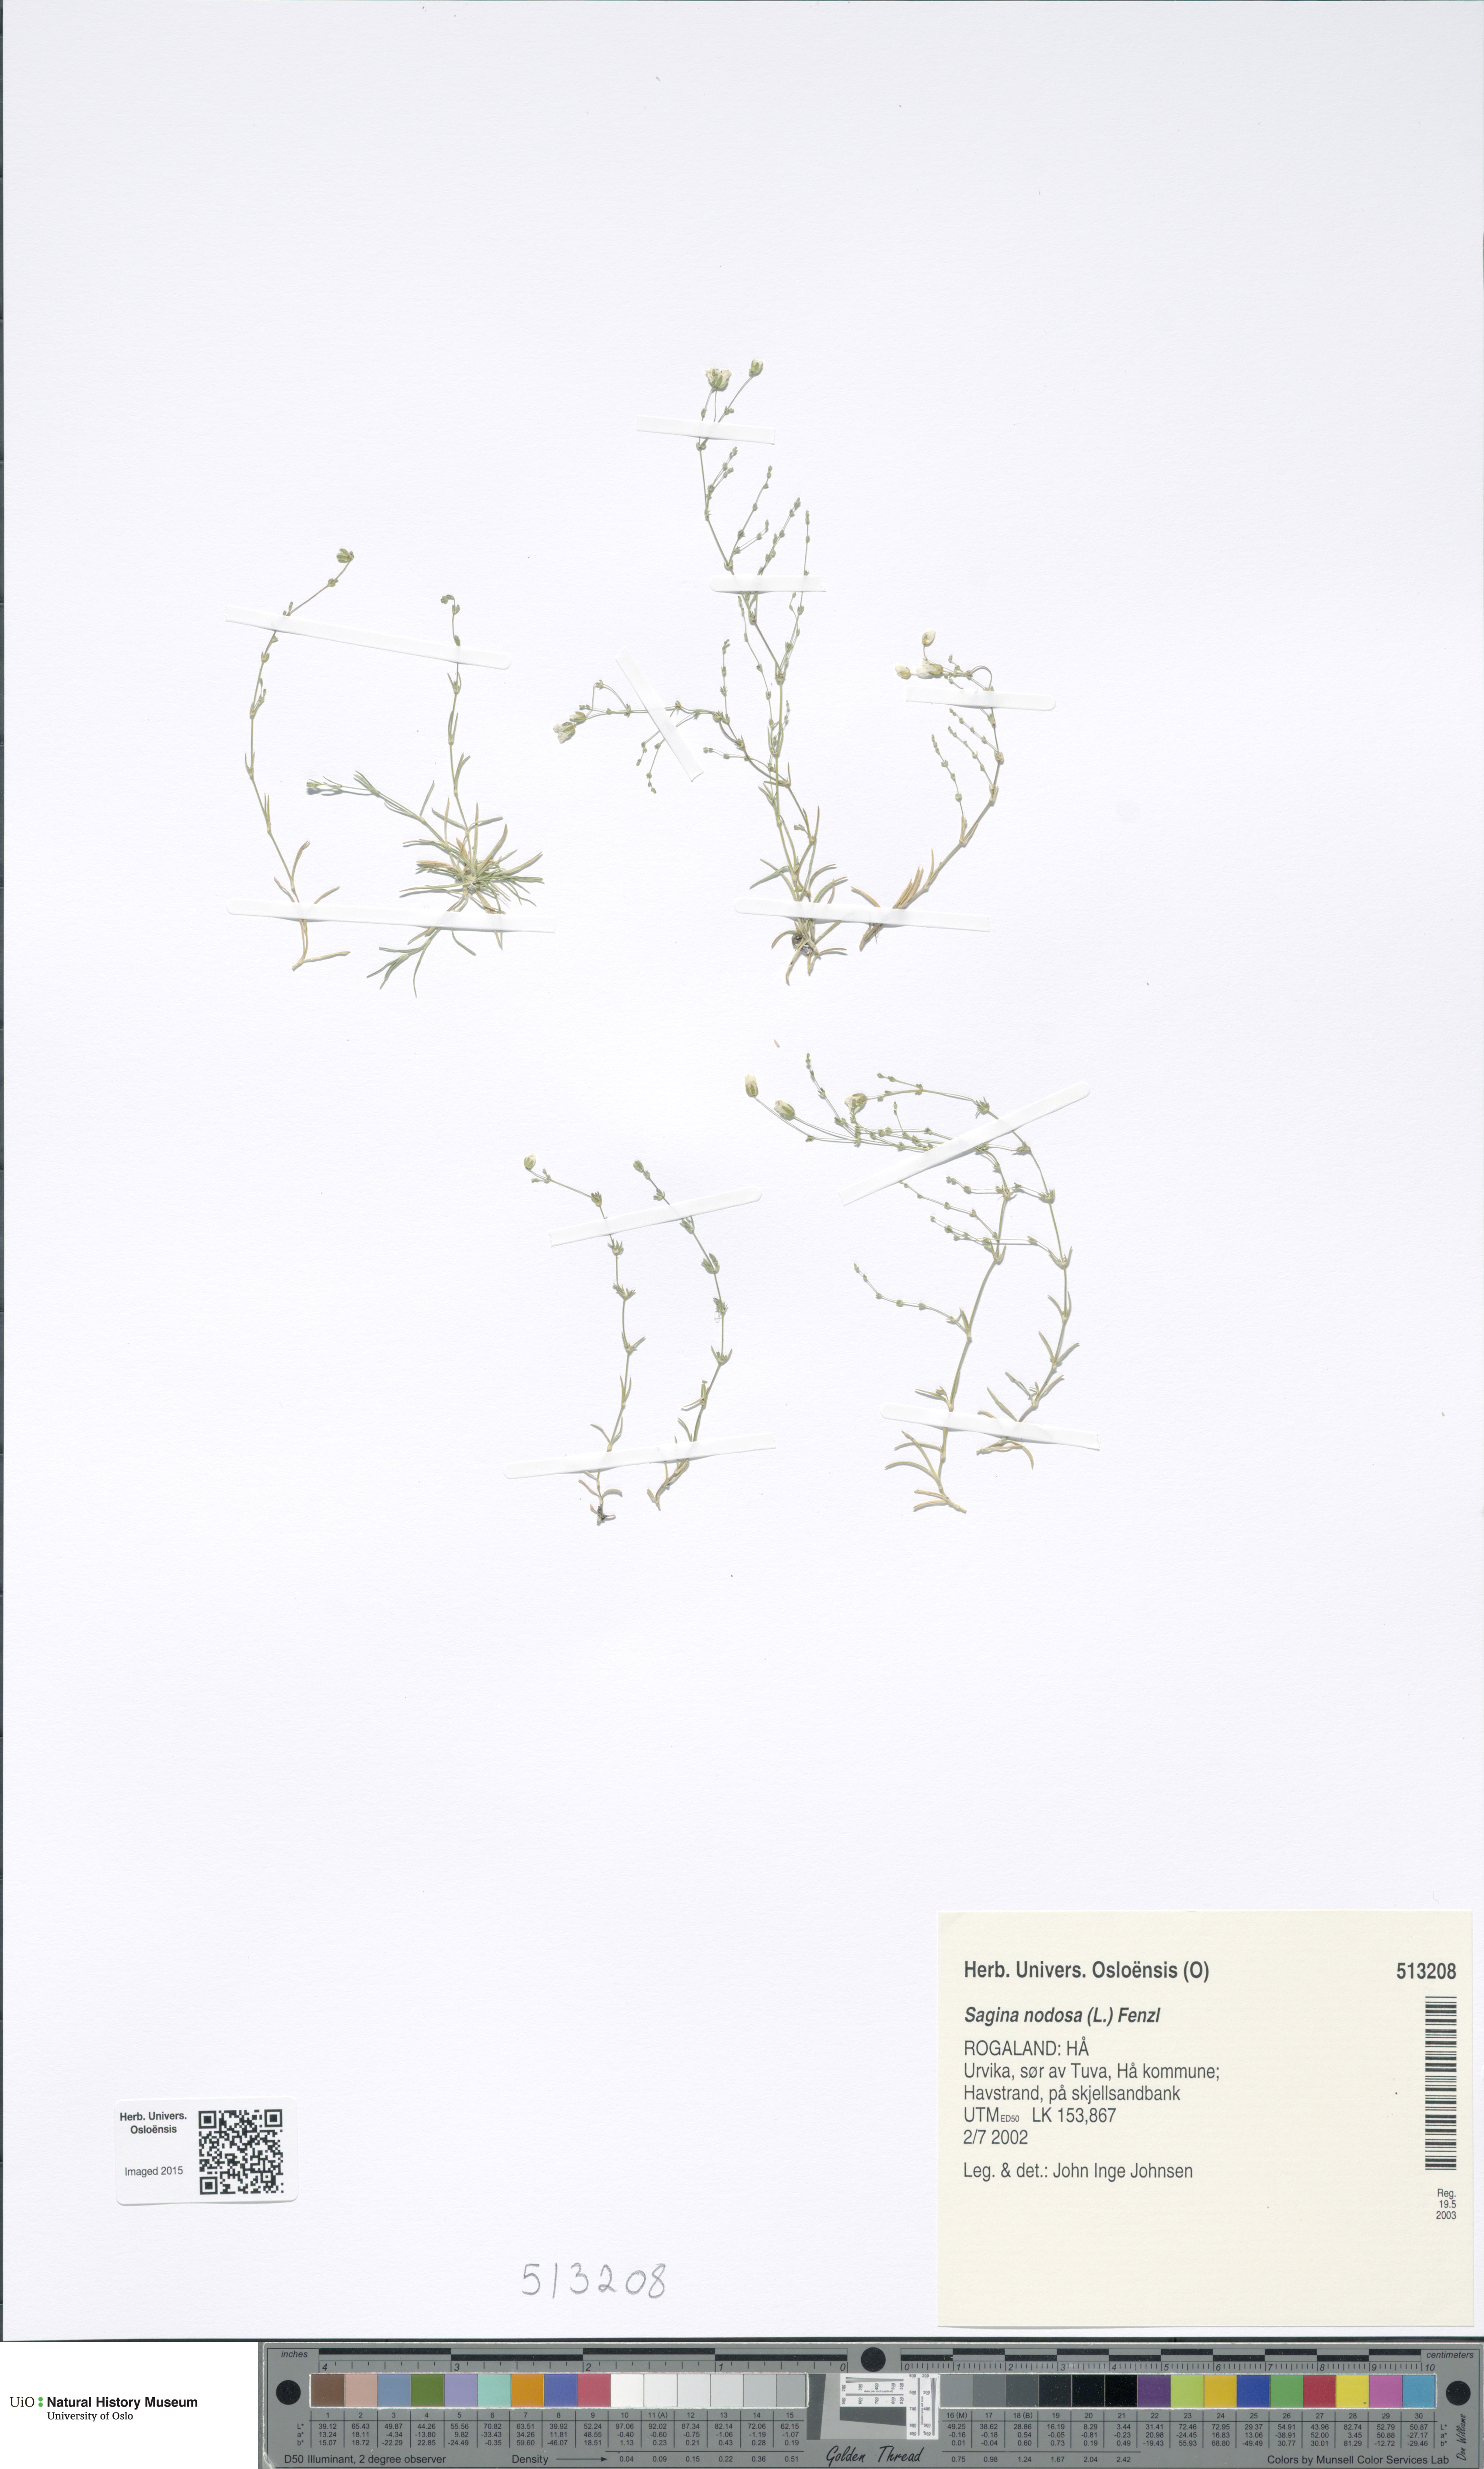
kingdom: Plantae
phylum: Tracheophyta
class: Magnoliopsida
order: Caryophyllales
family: Caryophyllaceae
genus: Sagina
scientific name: Sagina nodosa
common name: Knotted pearlwort
